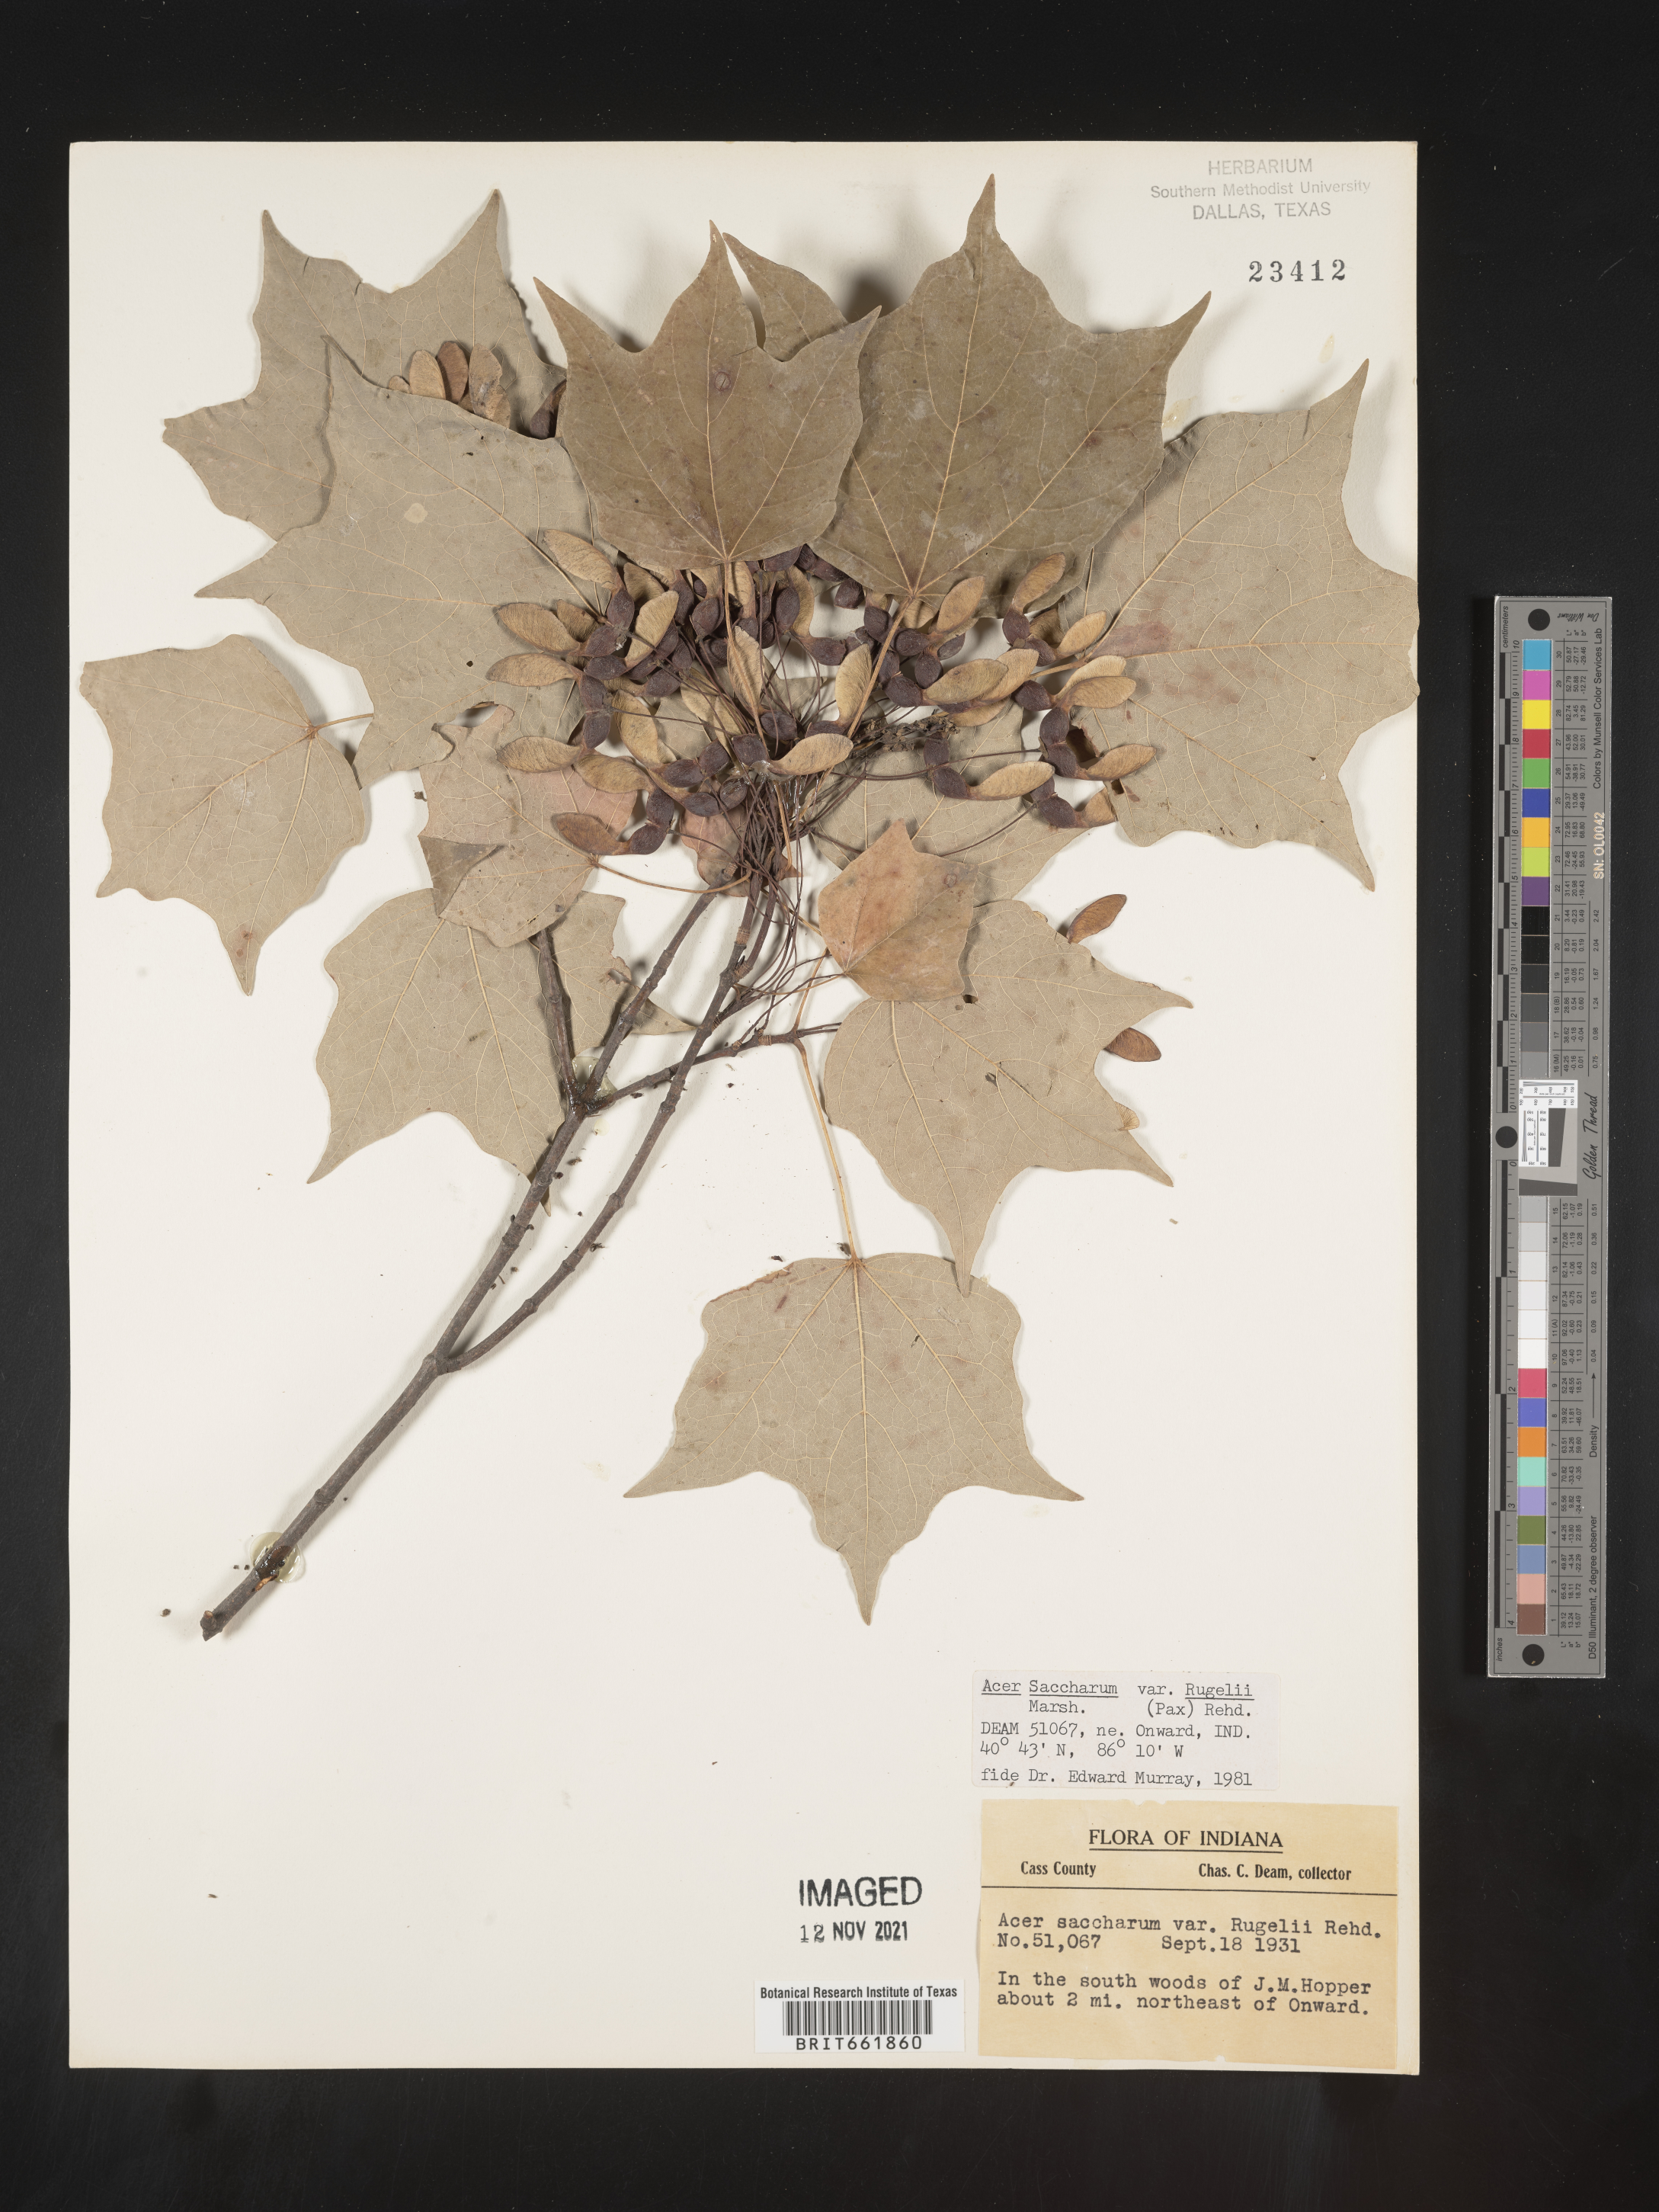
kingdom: Plantae
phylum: Tracheophyta
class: Magnoliopsida
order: Sapindales
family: Sapindaceae
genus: Acer
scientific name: Acer saccharum
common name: Sugar maple
